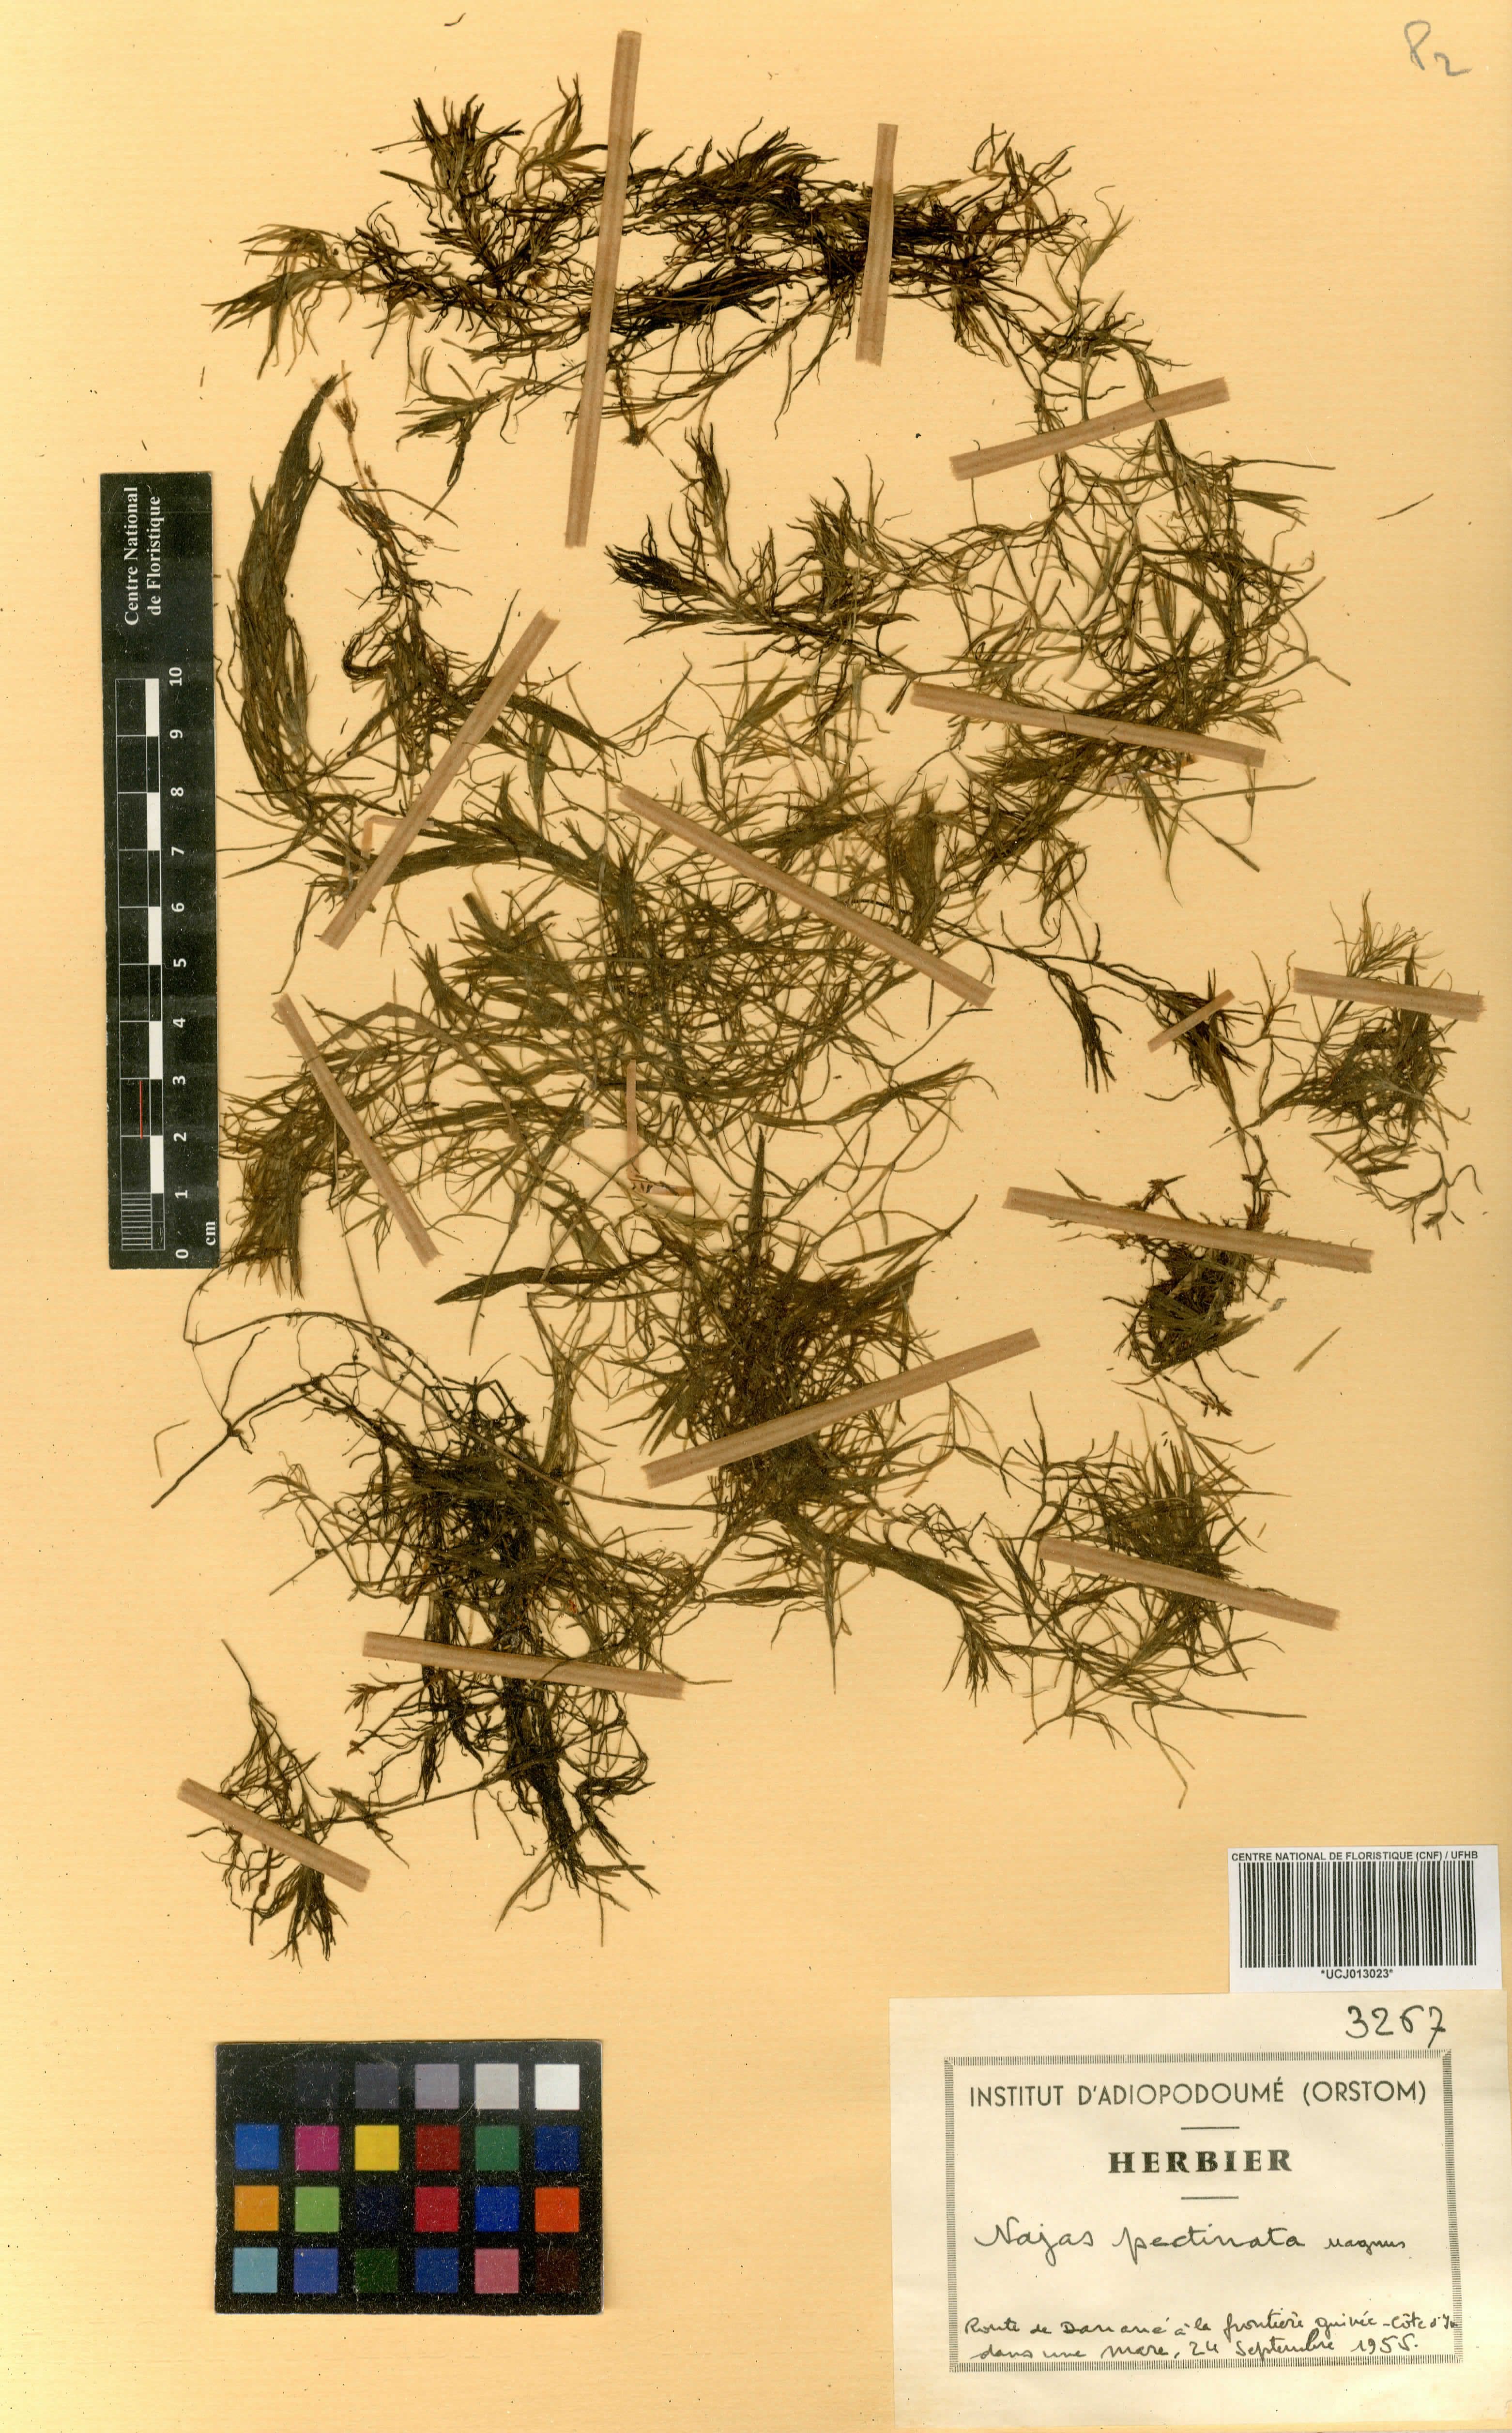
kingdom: Plantae
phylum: Tracheophyta
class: Liliopsida
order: Alismatales
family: Hydrocharitaceae
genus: Najas
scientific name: Najas pectinata
